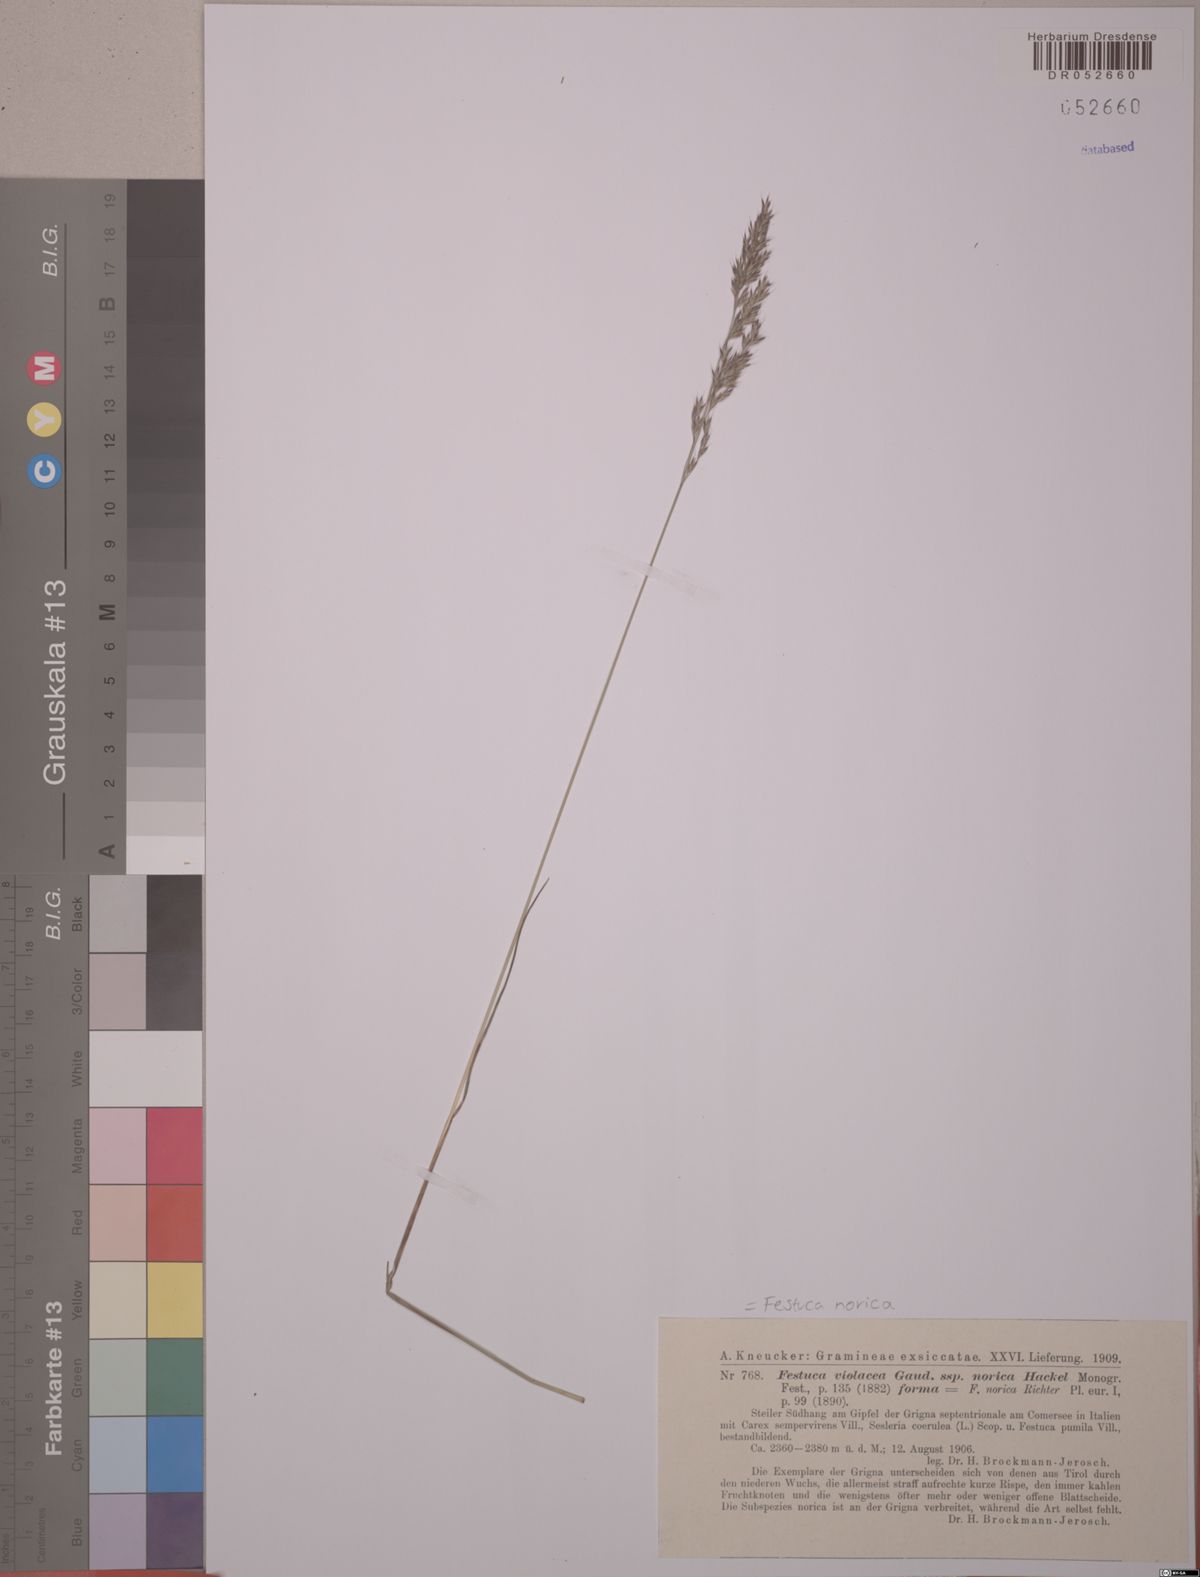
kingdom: Plantae
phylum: Tracheophyta
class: Liliopsida
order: Poales
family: Poaceae
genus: Festuca
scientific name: Festuca norica
